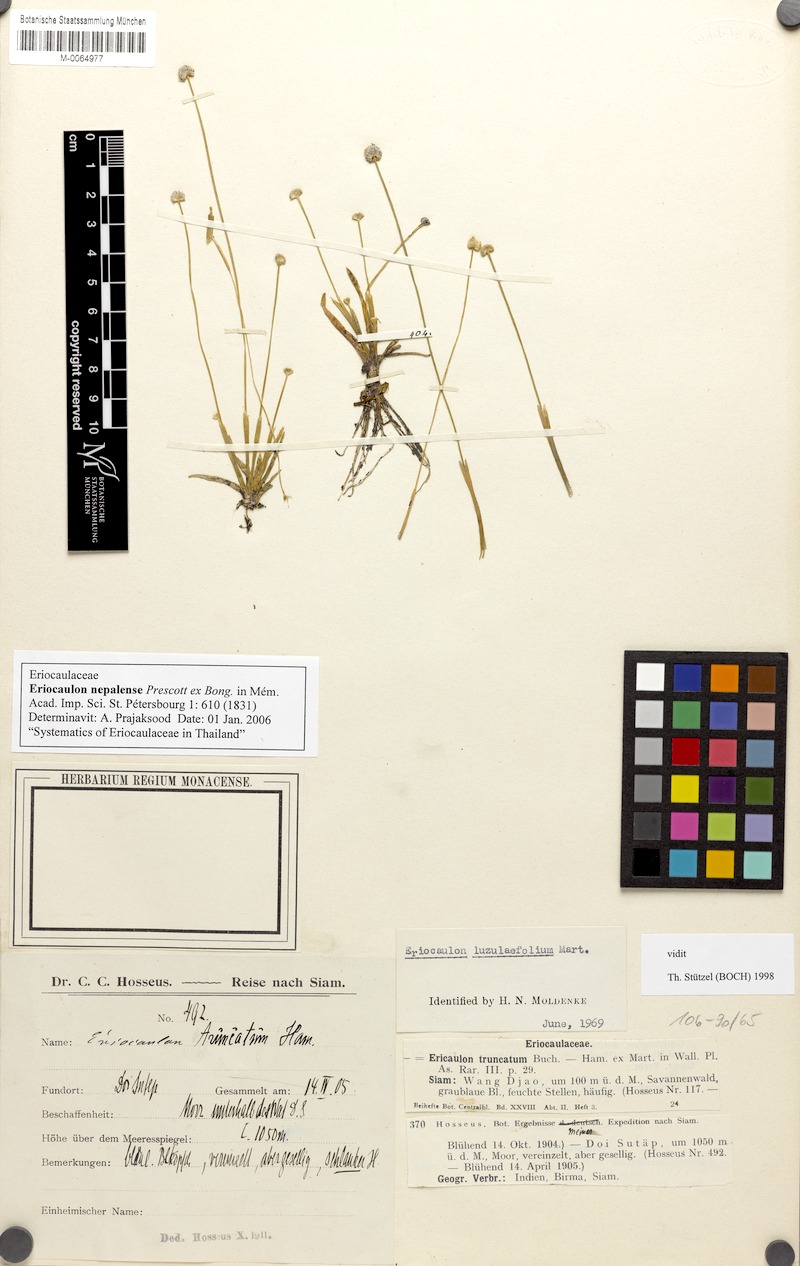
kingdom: Plantae
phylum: Tracheophyta
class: Liliopsida
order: Poales
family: Eriocaulaceae
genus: Eriocaulon
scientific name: Eriocaulon nepalense
